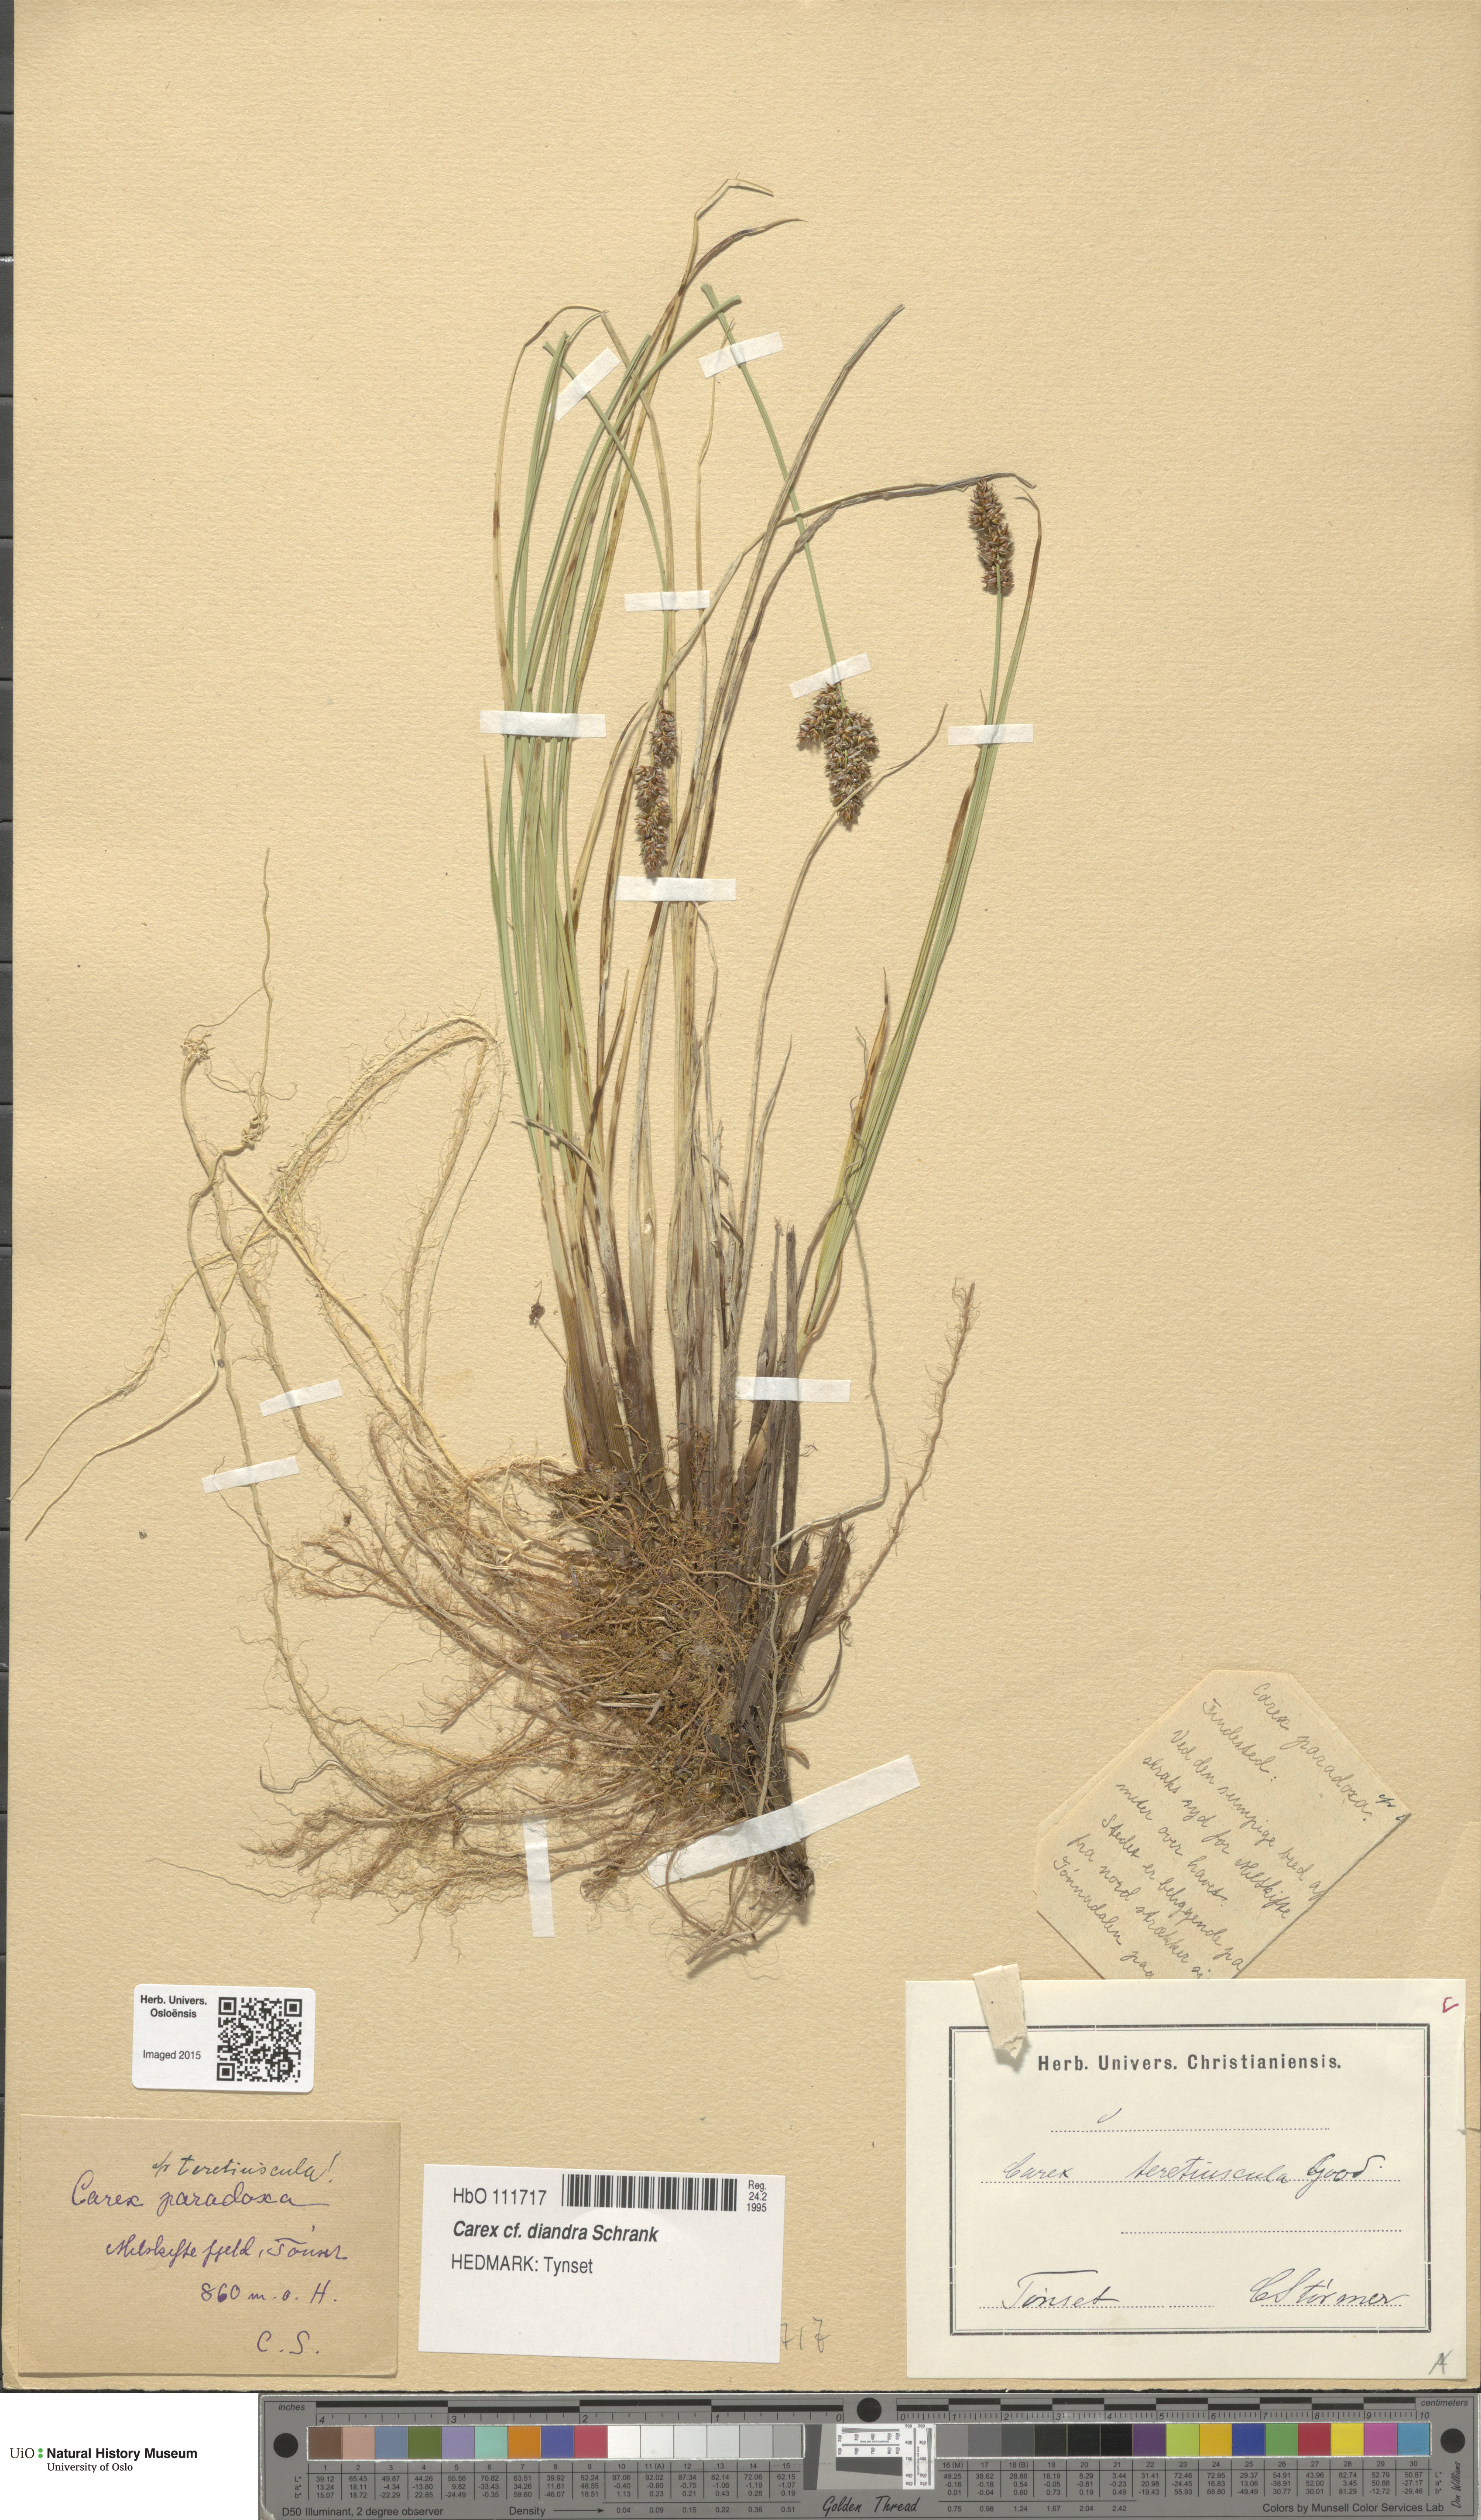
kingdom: Plantae
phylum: Tracheophyta
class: Liliopsida
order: Poales
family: Cyperaceae
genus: Carex
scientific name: Carex diandra
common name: Lesser tussock-sedge
